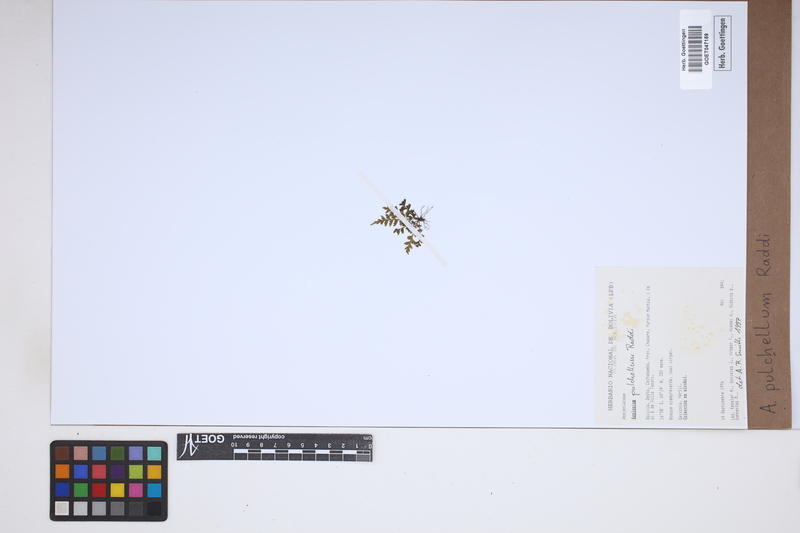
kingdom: Plantae
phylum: Tracheophyta
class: Polypodiopsida
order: Polypodiales
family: Aspleniaceae
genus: Asplenium
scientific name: Asplenium pulchellum
